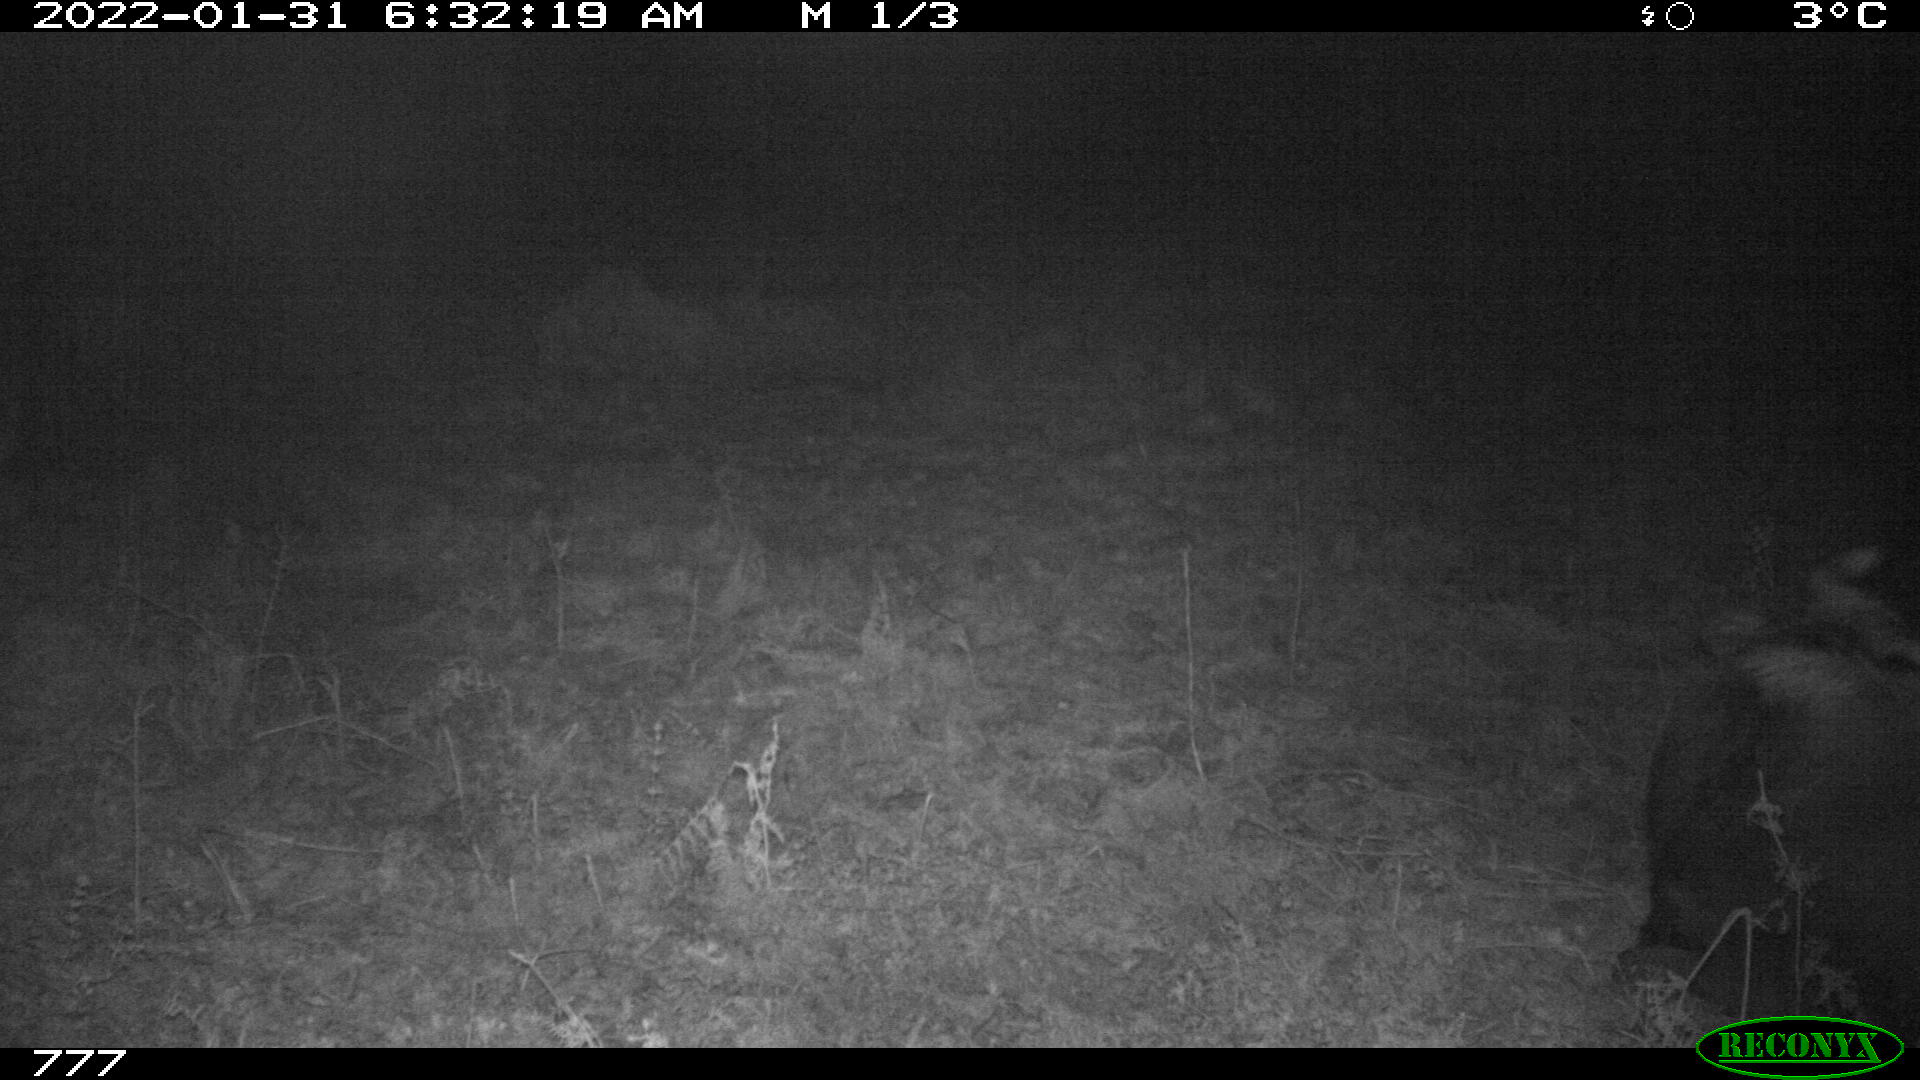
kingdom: Animalia
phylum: Chordata
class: Mammalia
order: Artiodactyla
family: Bovidae
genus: Bos
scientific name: Bos taurus
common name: Domesticated cattle
